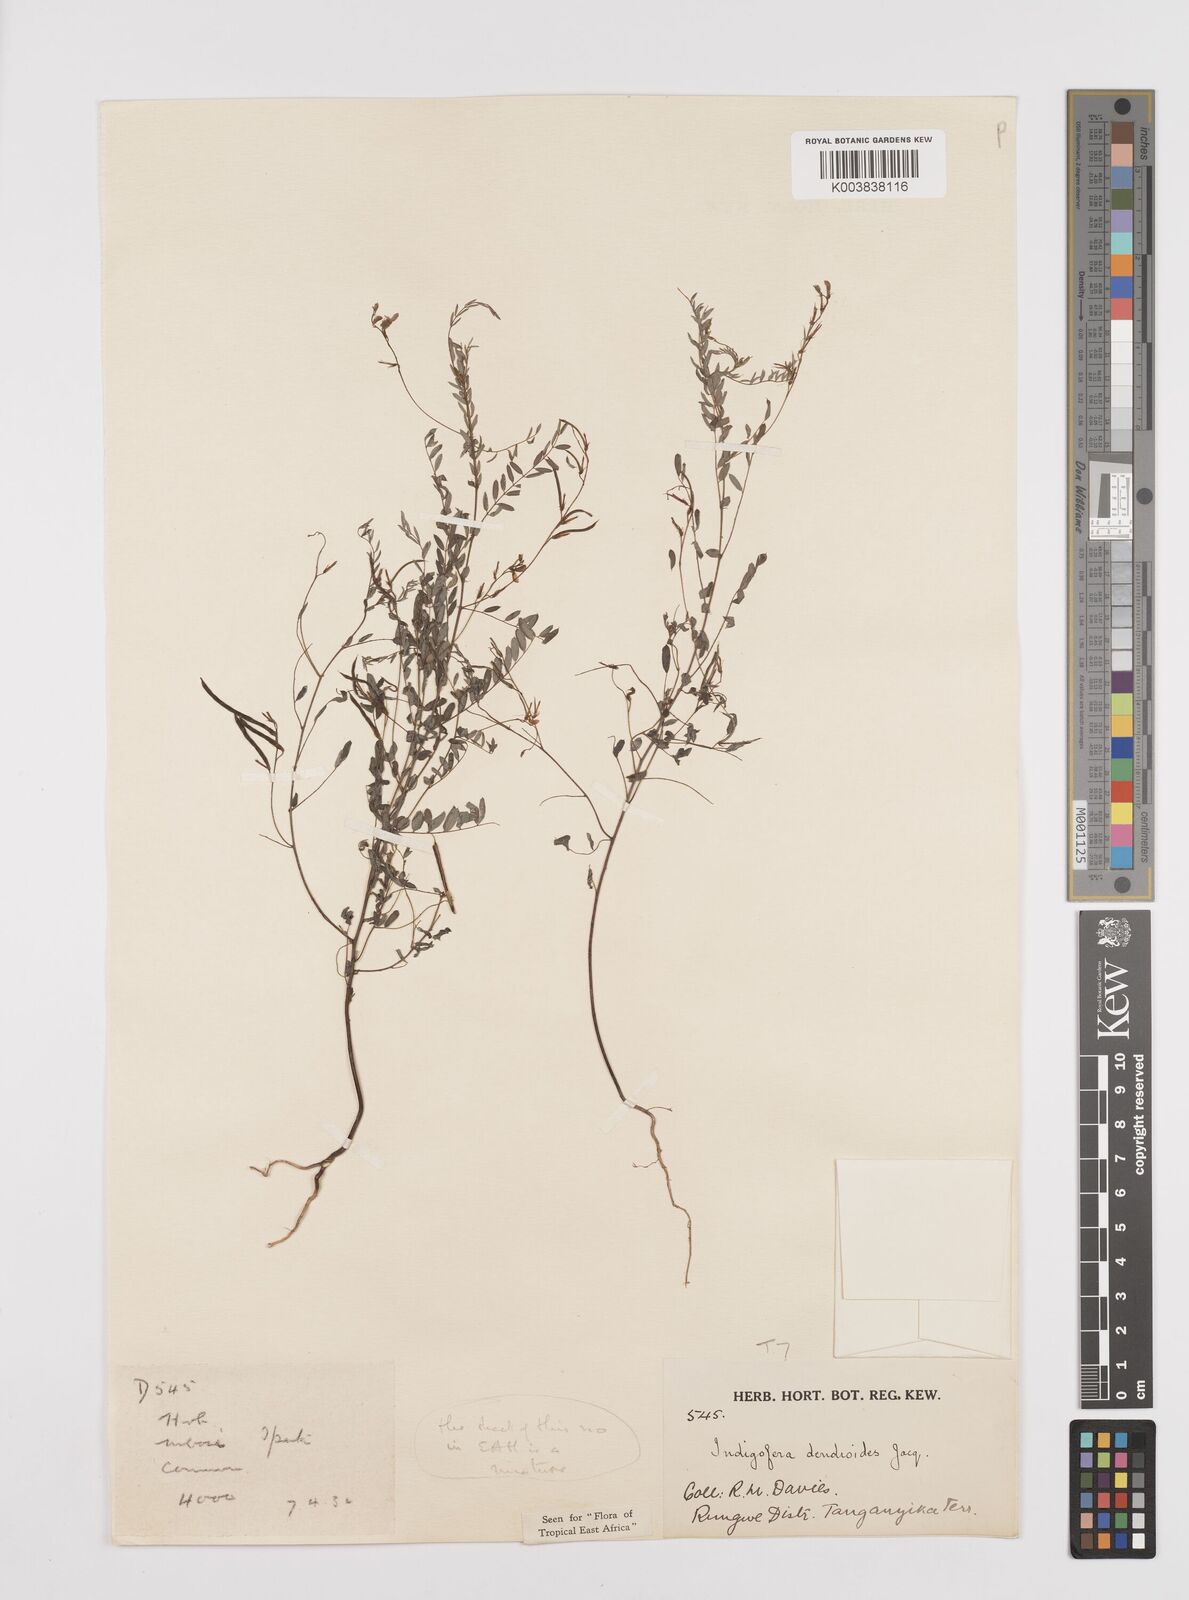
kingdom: Plantae
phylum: Tracheophyta
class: Magnoliopsida
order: Fabales
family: Fabaceae
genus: Indigofera
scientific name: Indigofera dendroides
